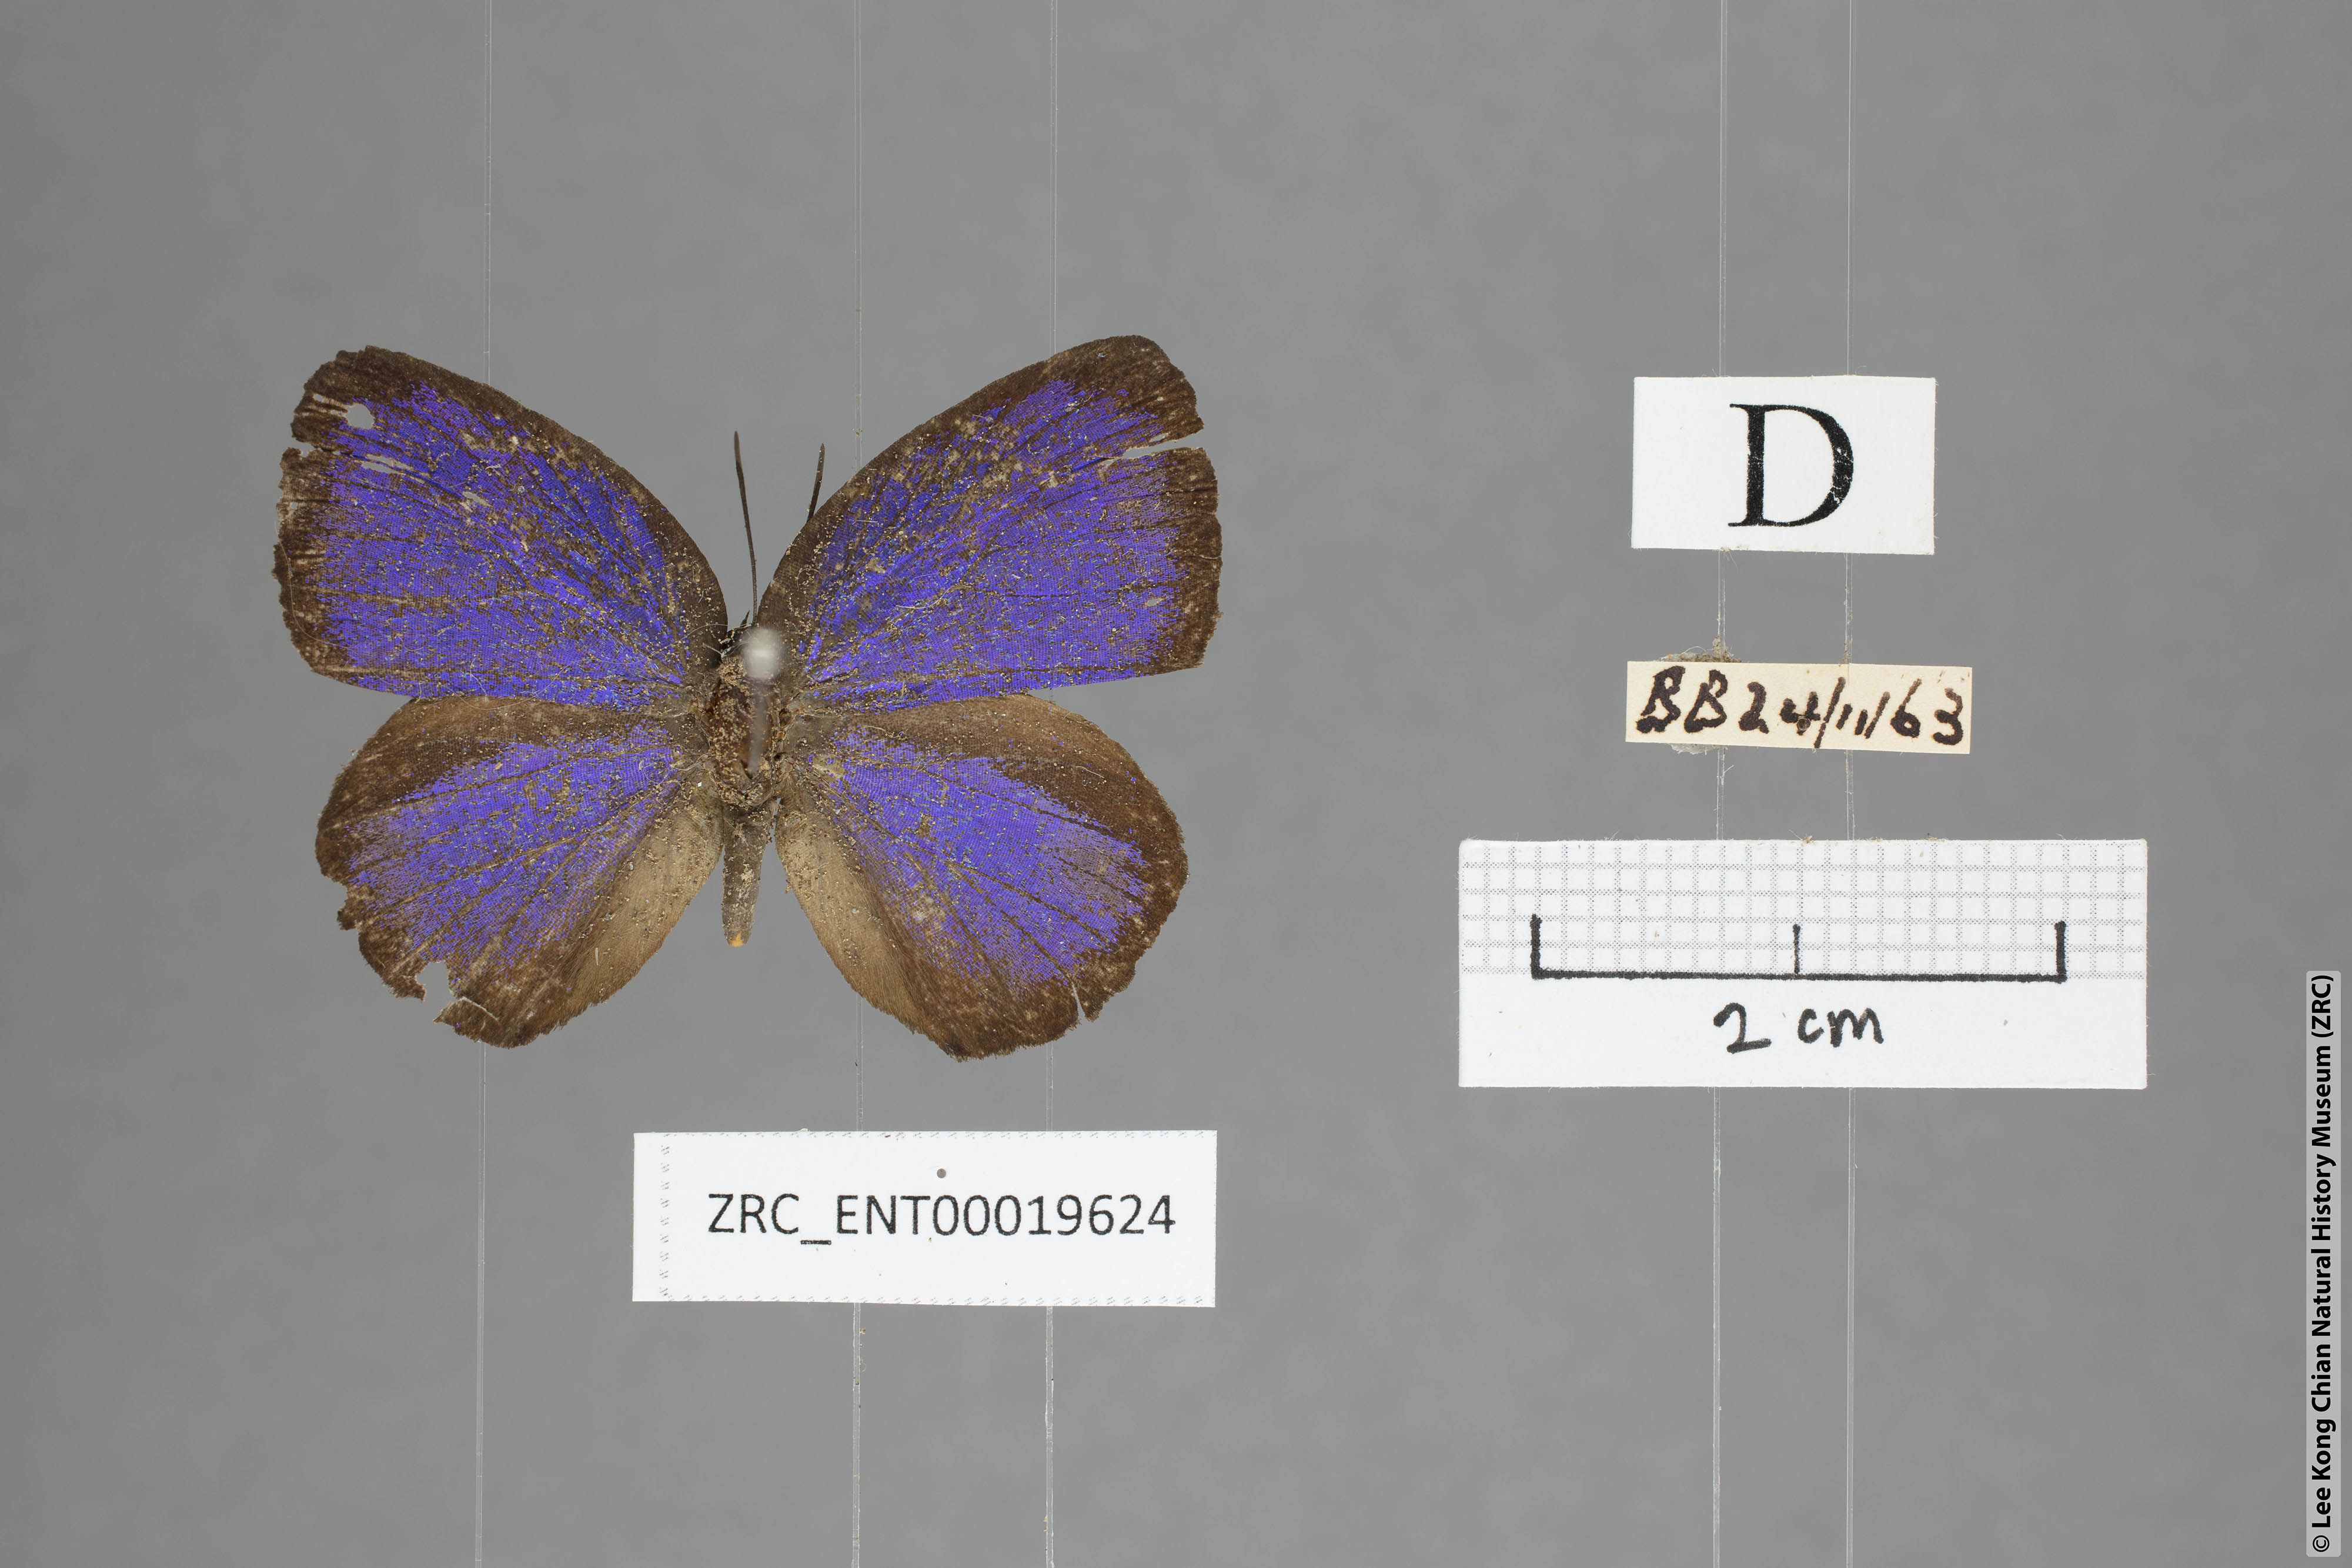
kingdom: Animalia
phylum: Arthropoda
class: Insecta
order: Lepidoptera
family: Lycaenidae
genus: Arhopala
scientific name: Arhopala major
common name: Major yellow oakblue
